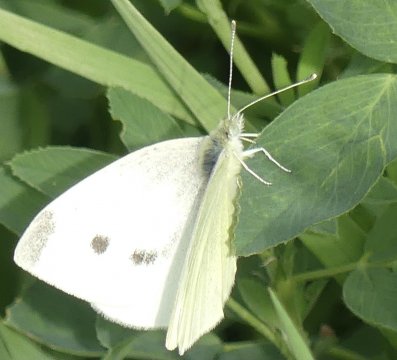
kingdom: Animalia
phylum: Arthropoda
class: Insecta
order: Lepidoptera
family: Pieridae
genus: Pieris
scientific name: Pieris rapae
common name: Cabbage White
